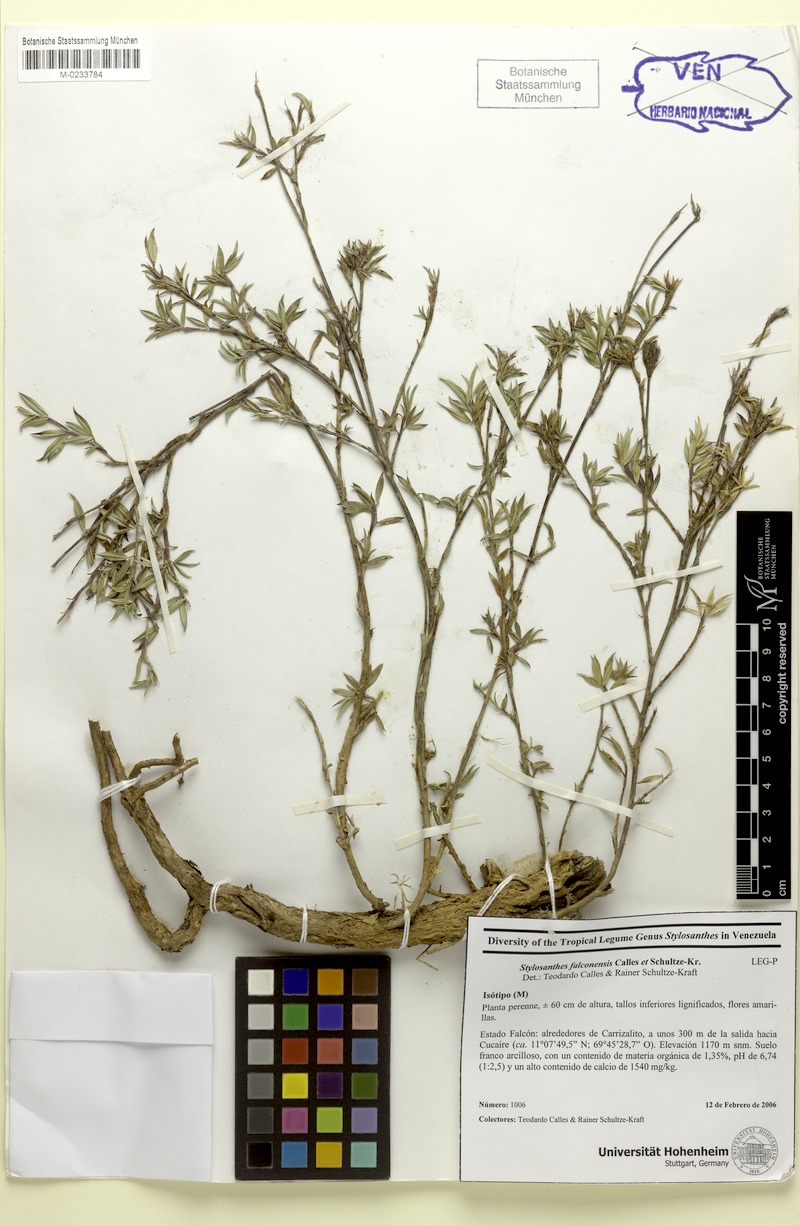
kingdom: Plantae
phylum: Tracheophyta
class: Magnoliopsida
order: Fabales
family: Fabaceae
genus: Stylosanthes
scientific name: Stylosanthes falconensis
